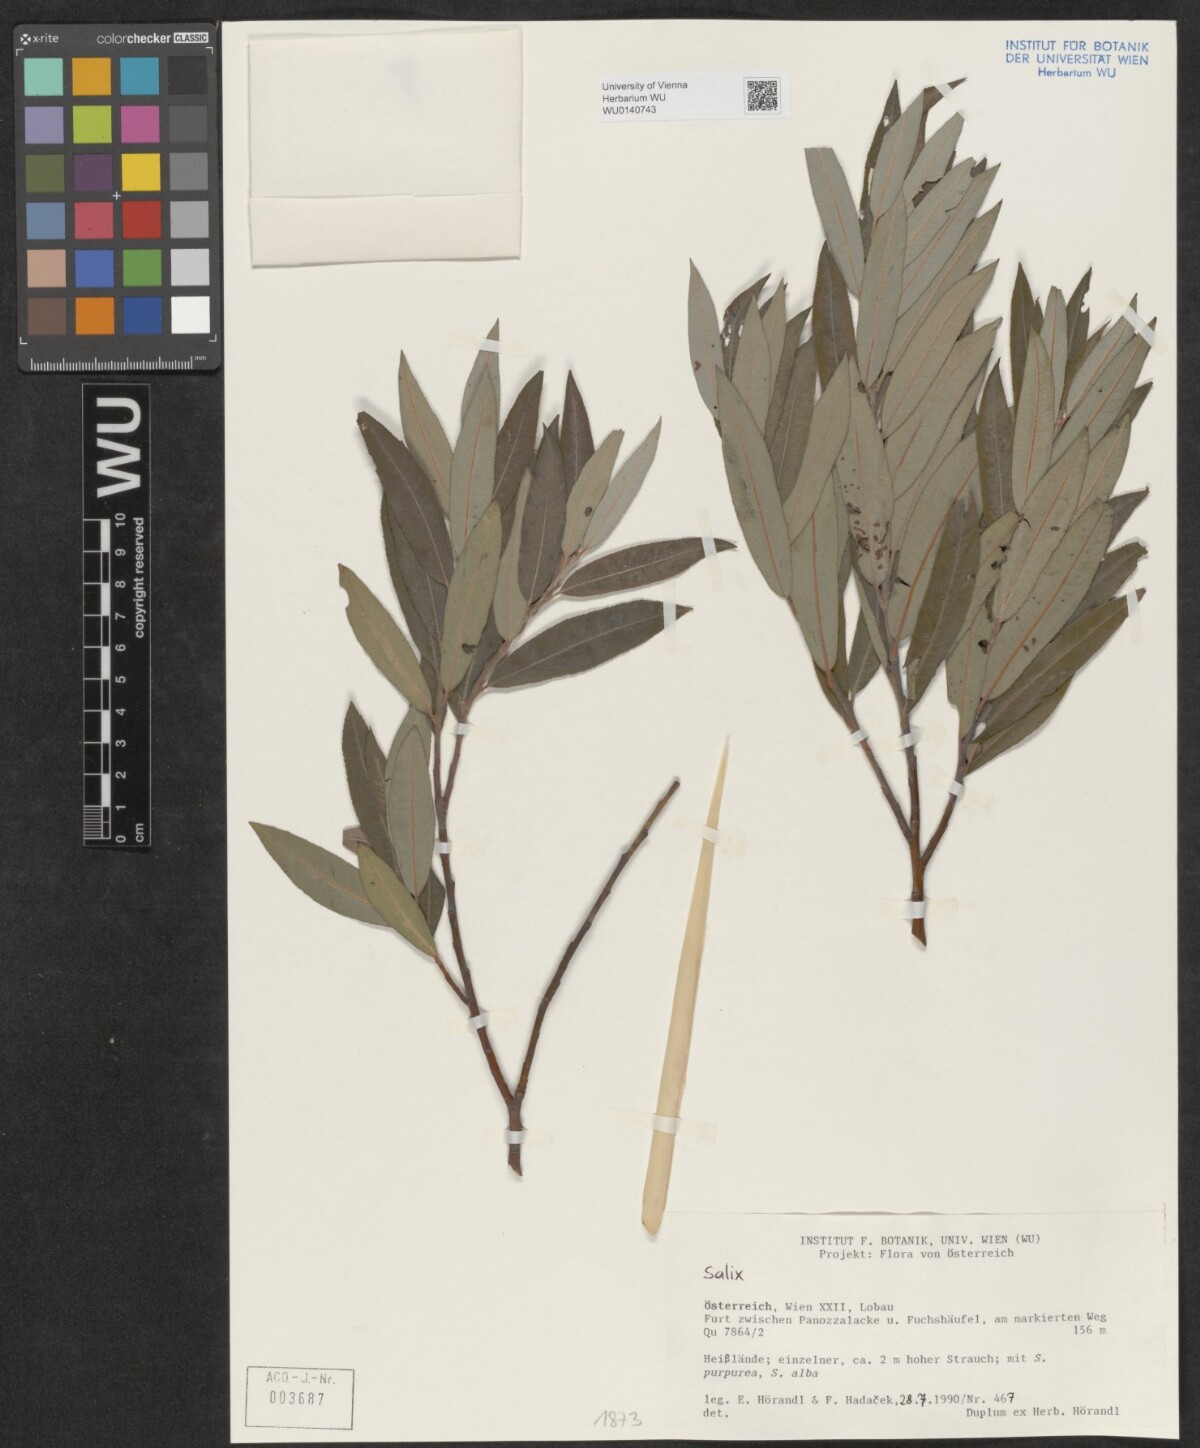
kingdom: Plantae
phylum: Tracheophyta
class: Magnoliopsida
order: Malpighiales
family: Salicaceae
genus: Salix
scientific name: Salix
